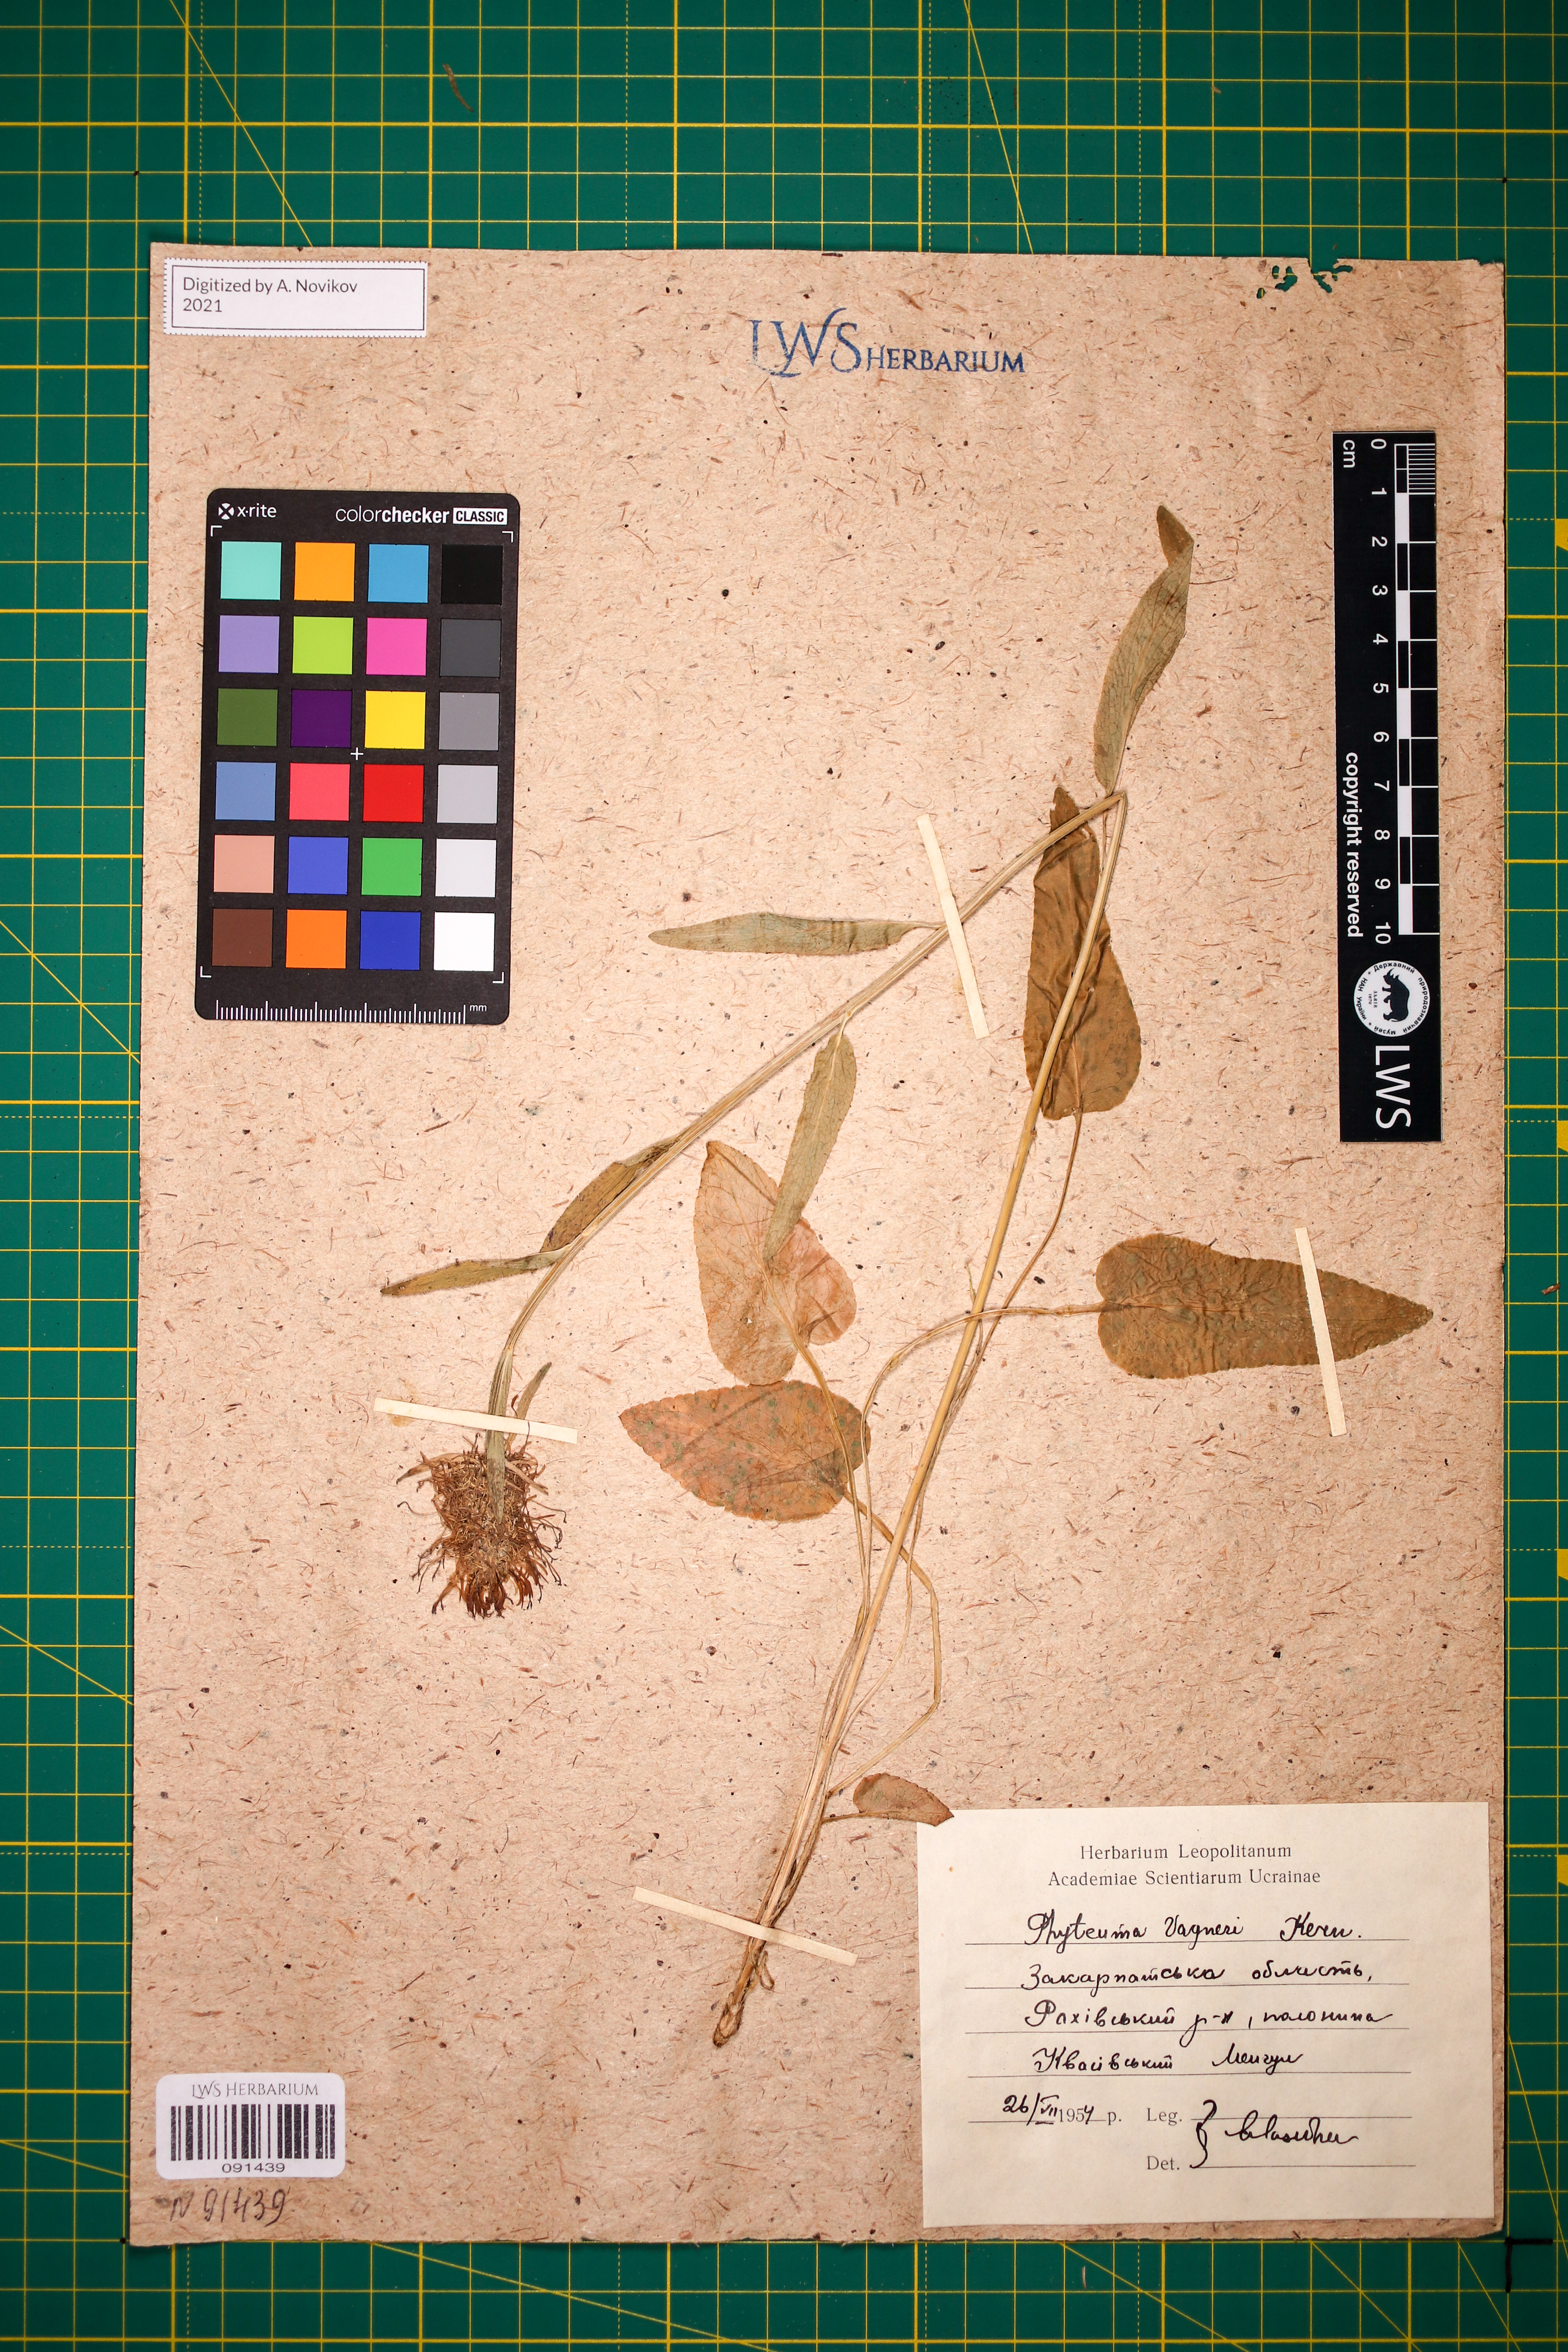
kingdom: Plantae
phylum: Tracheophyta
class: Magnoliopsida
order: Asterales
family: Campanulaceae
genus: Phyteuma
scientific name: Phyteuma vagneri
